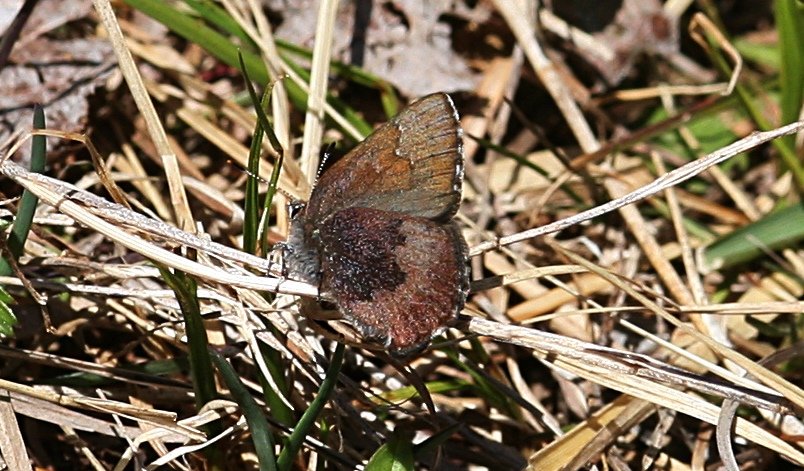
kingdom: Animalia
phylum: Arthropoda
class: Insecta
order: Lepidoptera
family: Lycaenidae
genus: Incisalia
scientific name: Incisalia irioides
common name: Brown Elfin
